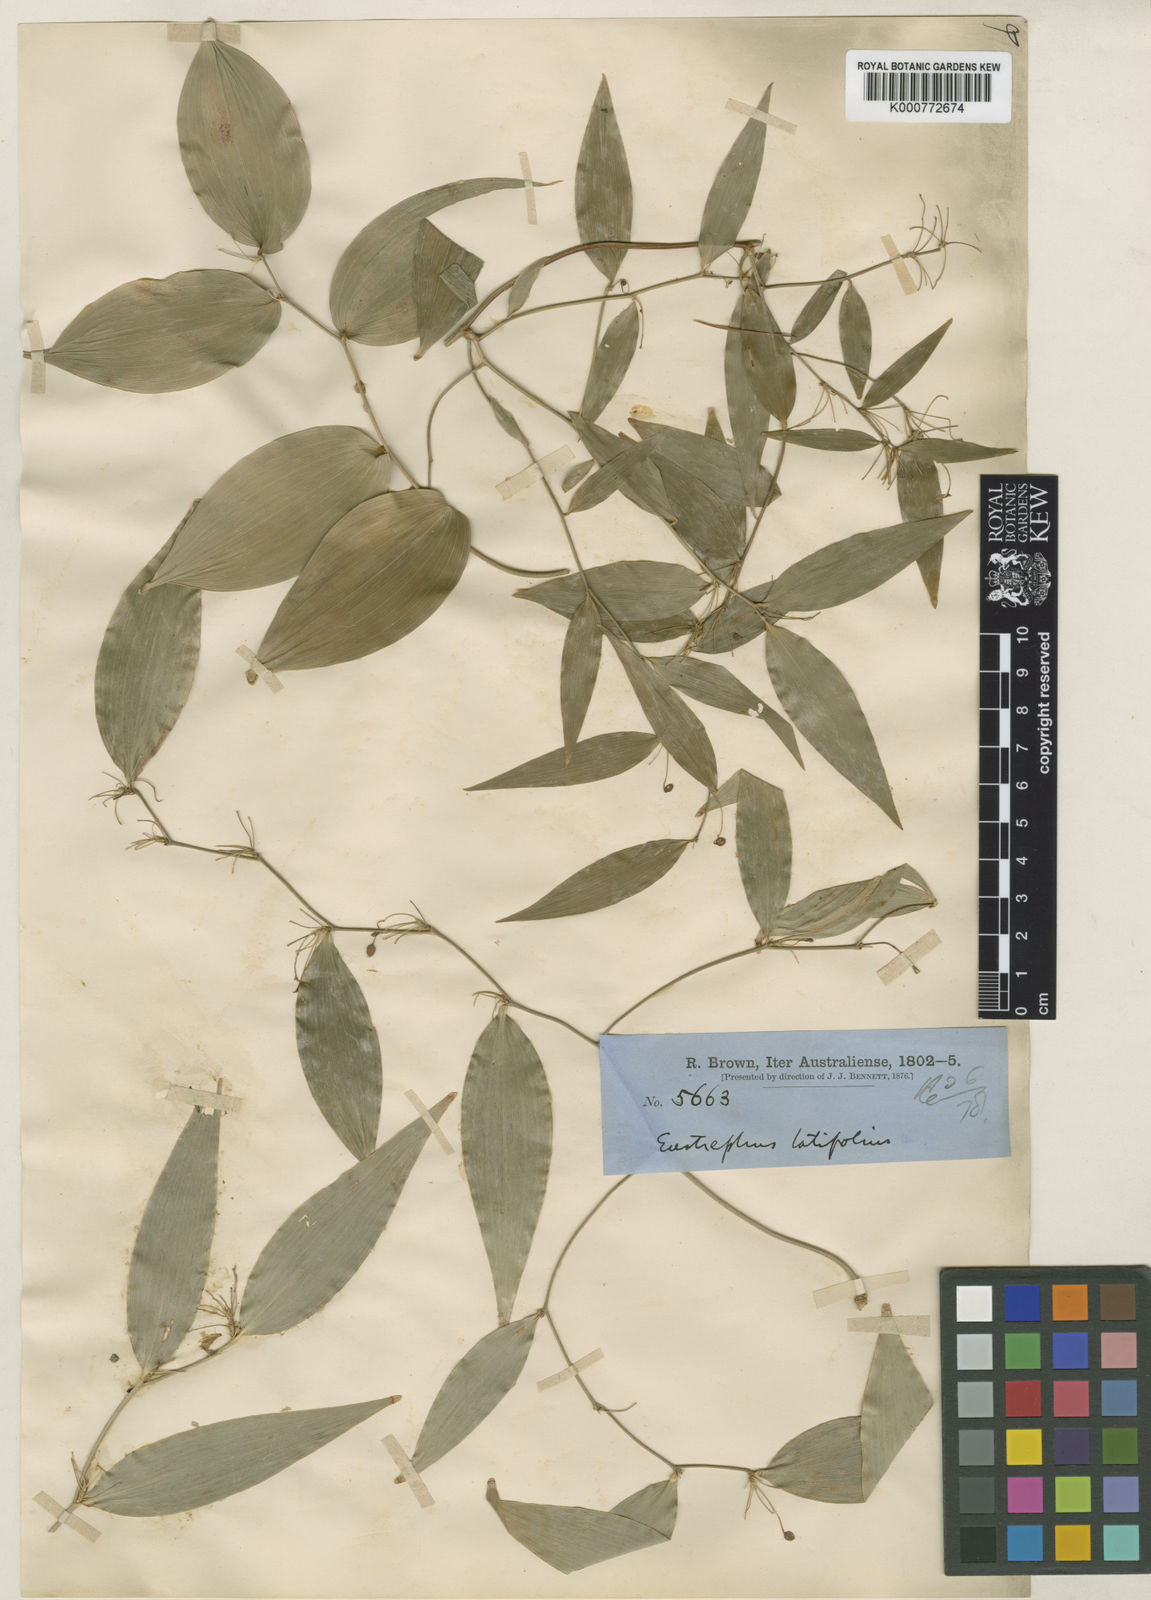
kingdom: Plantae
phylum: Tracheophyta
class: Liliopsida
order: Asparagales
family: Asparagaceae
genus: Eustrephus
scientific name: Eustrephus latifolius
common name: Orangevine
